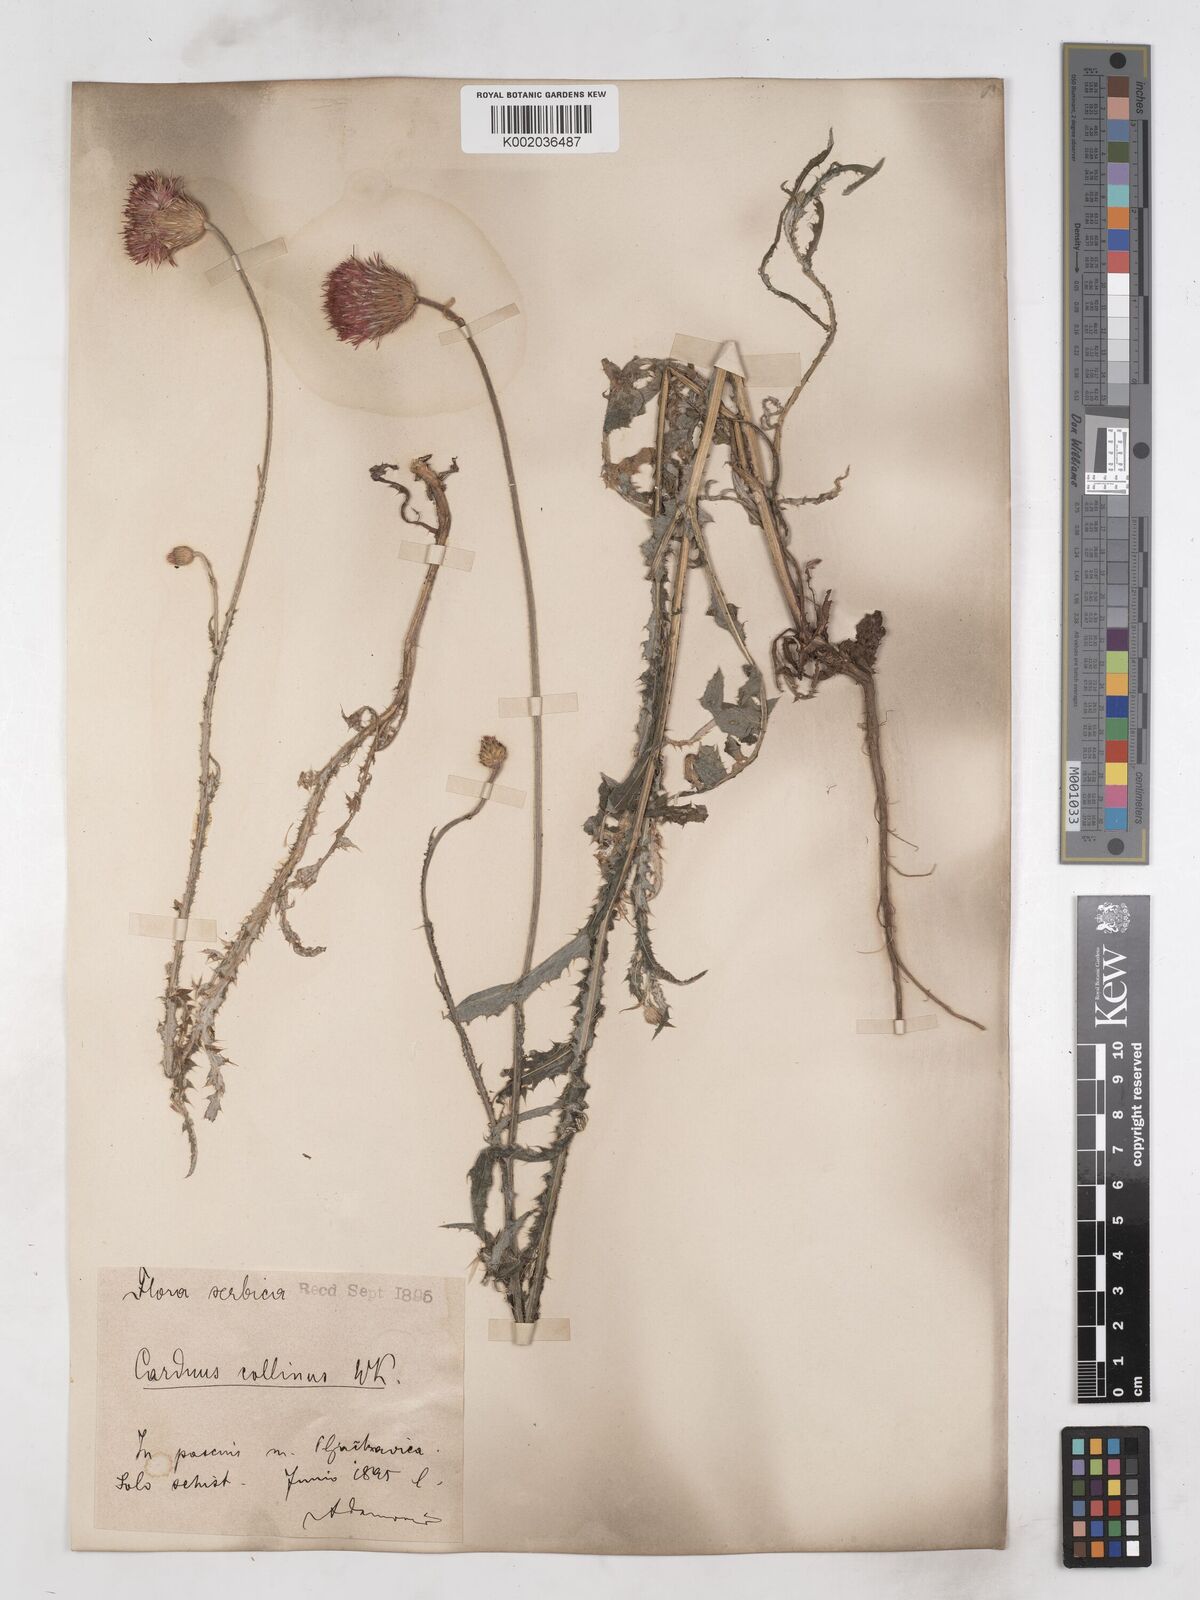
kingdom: Plantae
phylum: Tracheophyta
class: Magnoliopsida
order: Asterales
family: Asteraceae
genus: Carduus
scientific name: Carduus candicans
